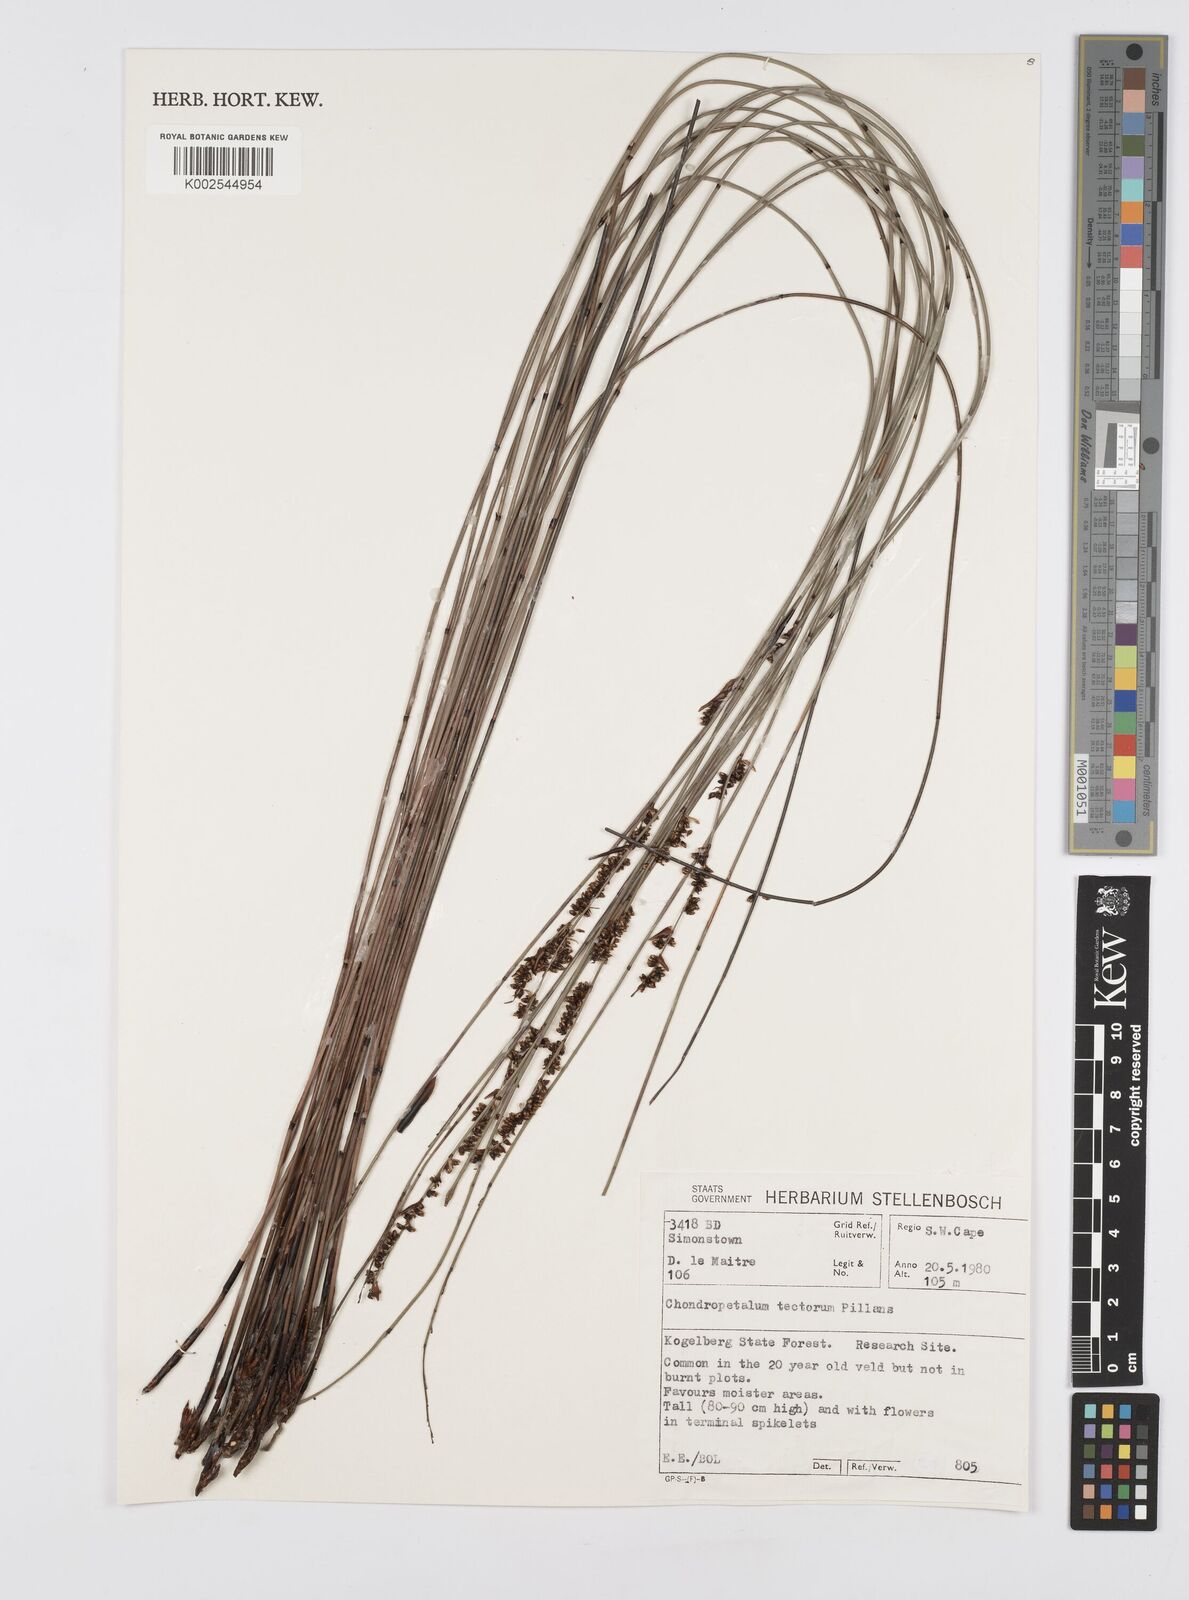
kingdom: Plantae
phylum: Tracheophyta
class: Liliopsida
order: Poales
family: Restionaceae
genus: Elegia
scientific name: Elegia tectorum
